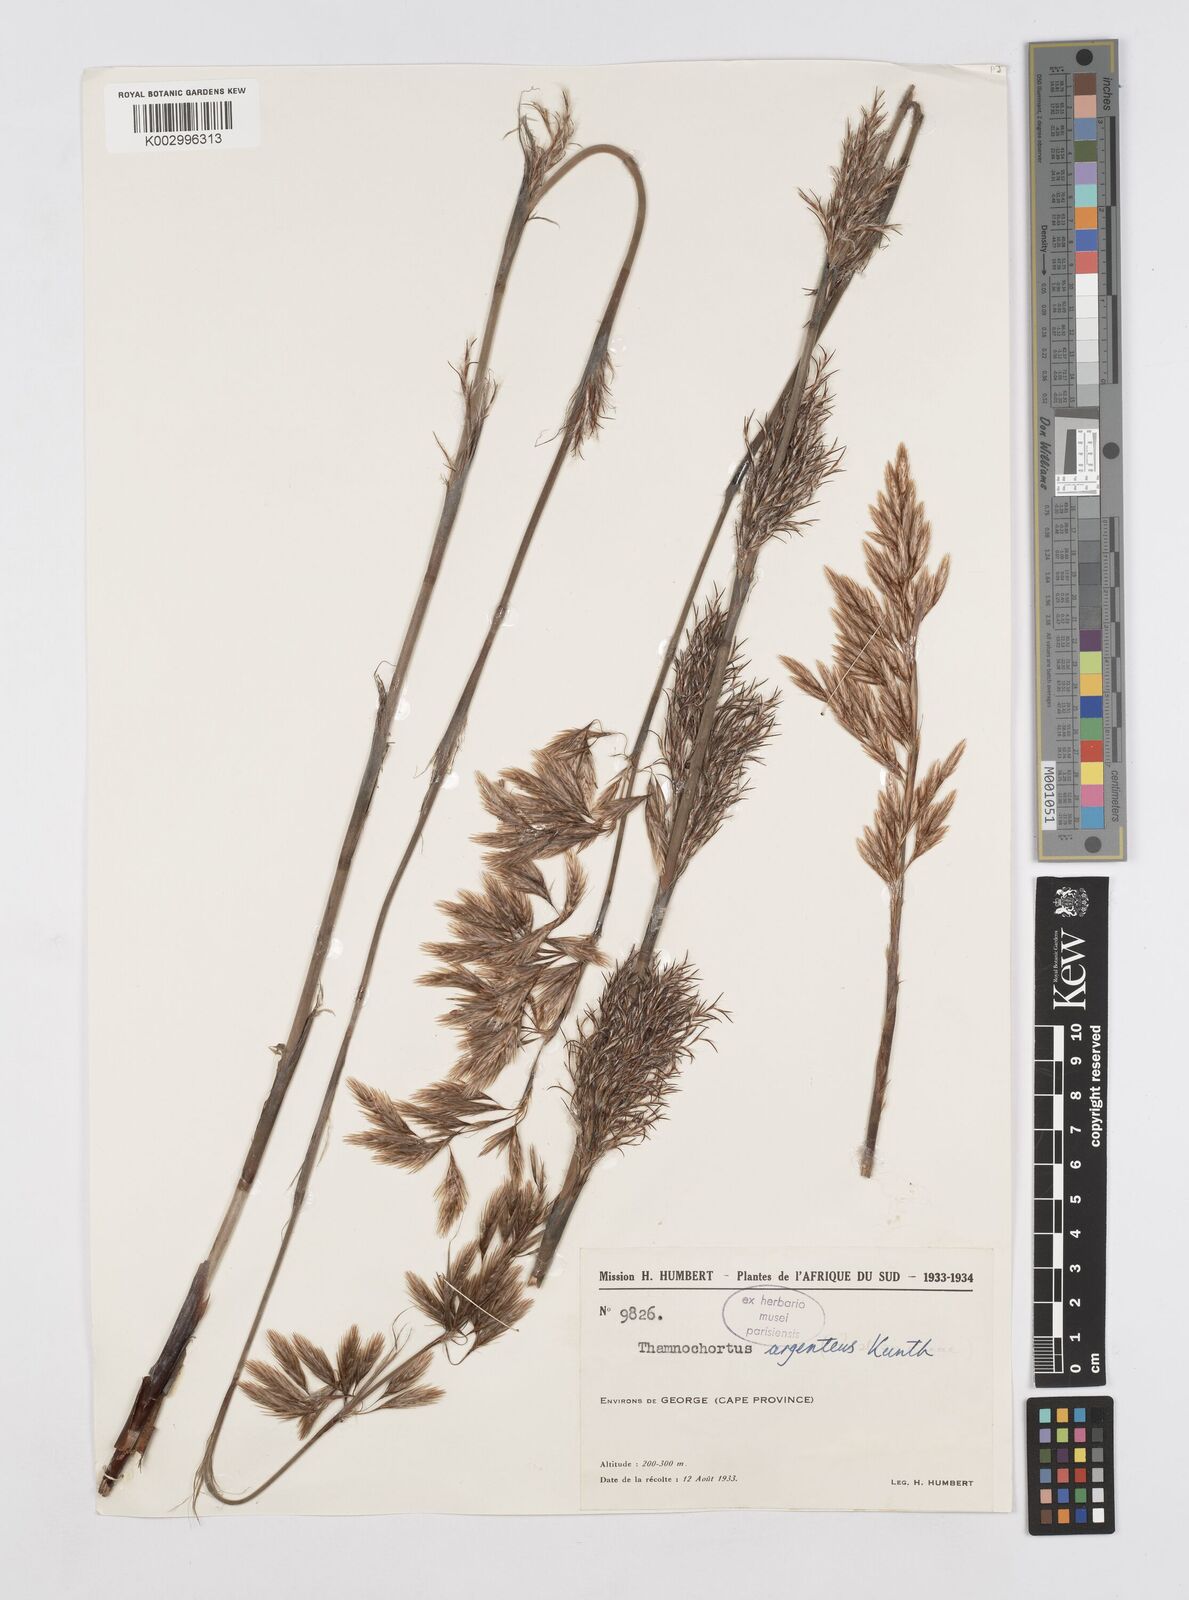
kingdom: Plantae
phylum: Tracheophyta
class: Liliopsida
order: Poales
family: Restionaceae
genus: Hypodiscus
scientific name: Hypodiscus argenteus
